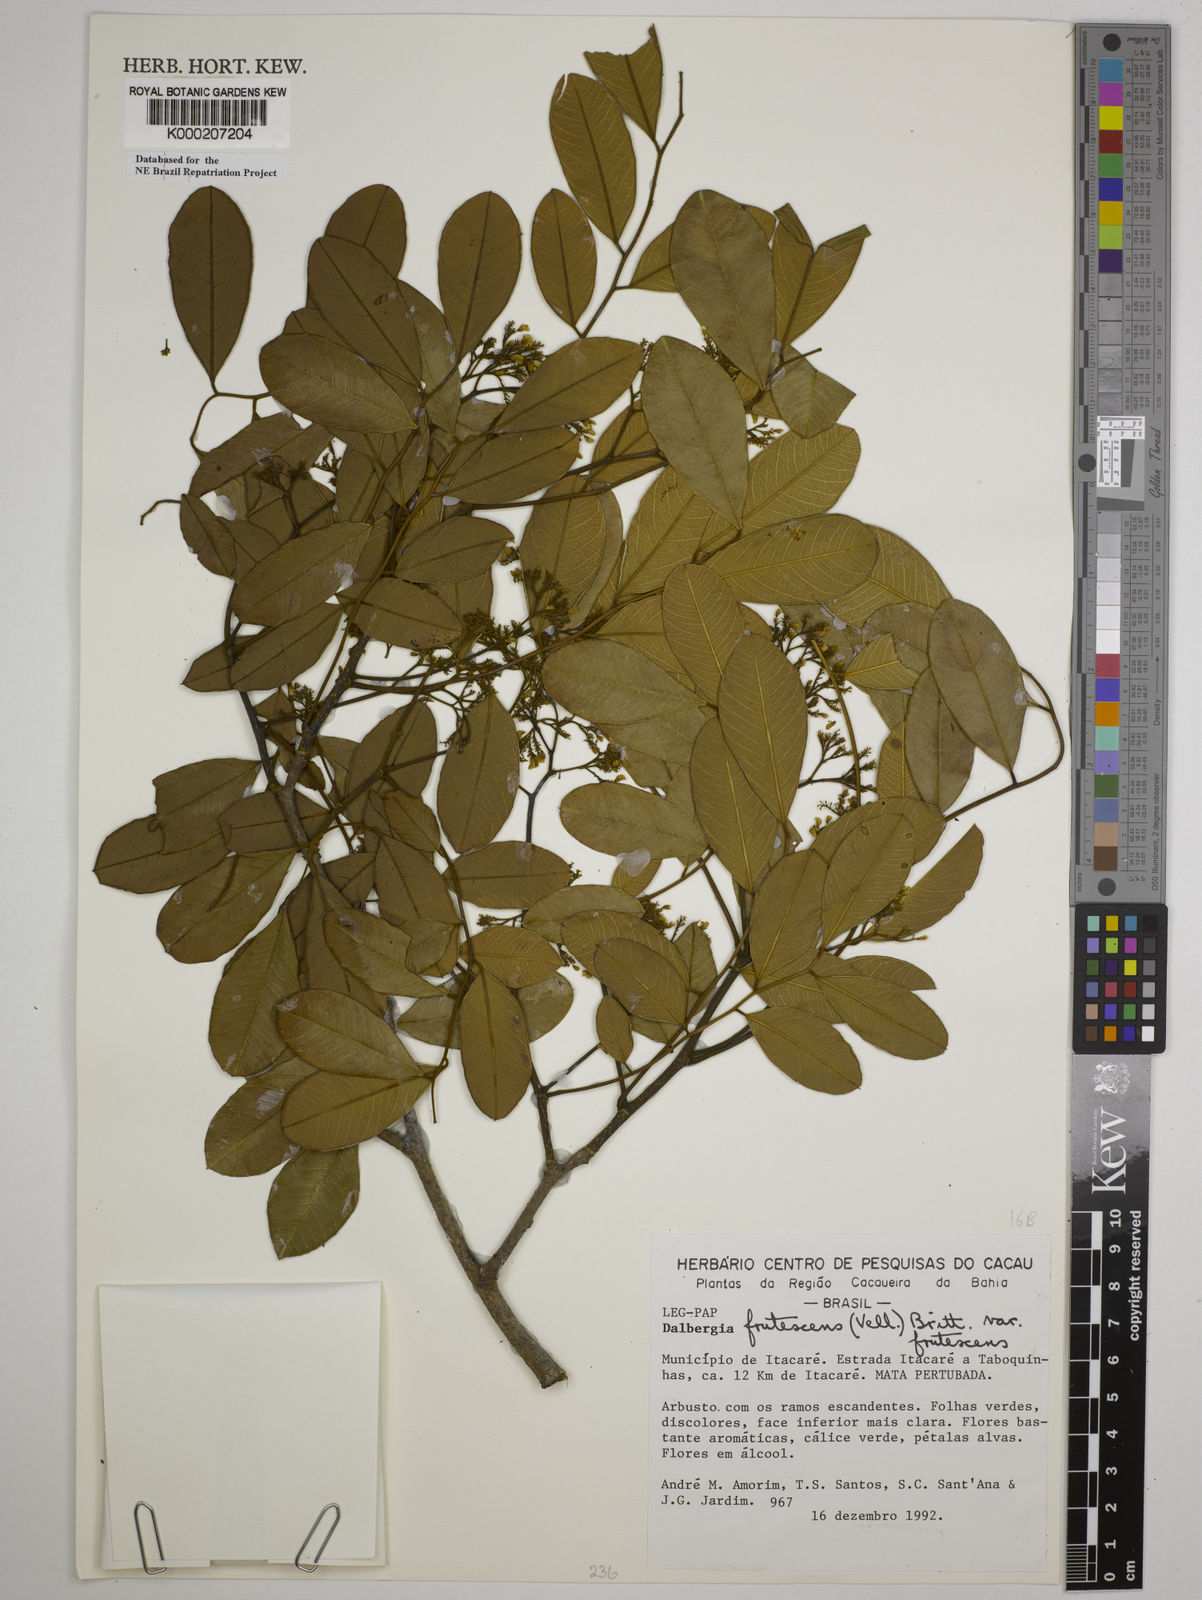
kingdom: Plantae
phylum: Tracheophyta
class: Magnoliopsida
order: Fabales
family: Fabaceae
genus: Dalbergia
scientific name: Dalbergia frutescens
